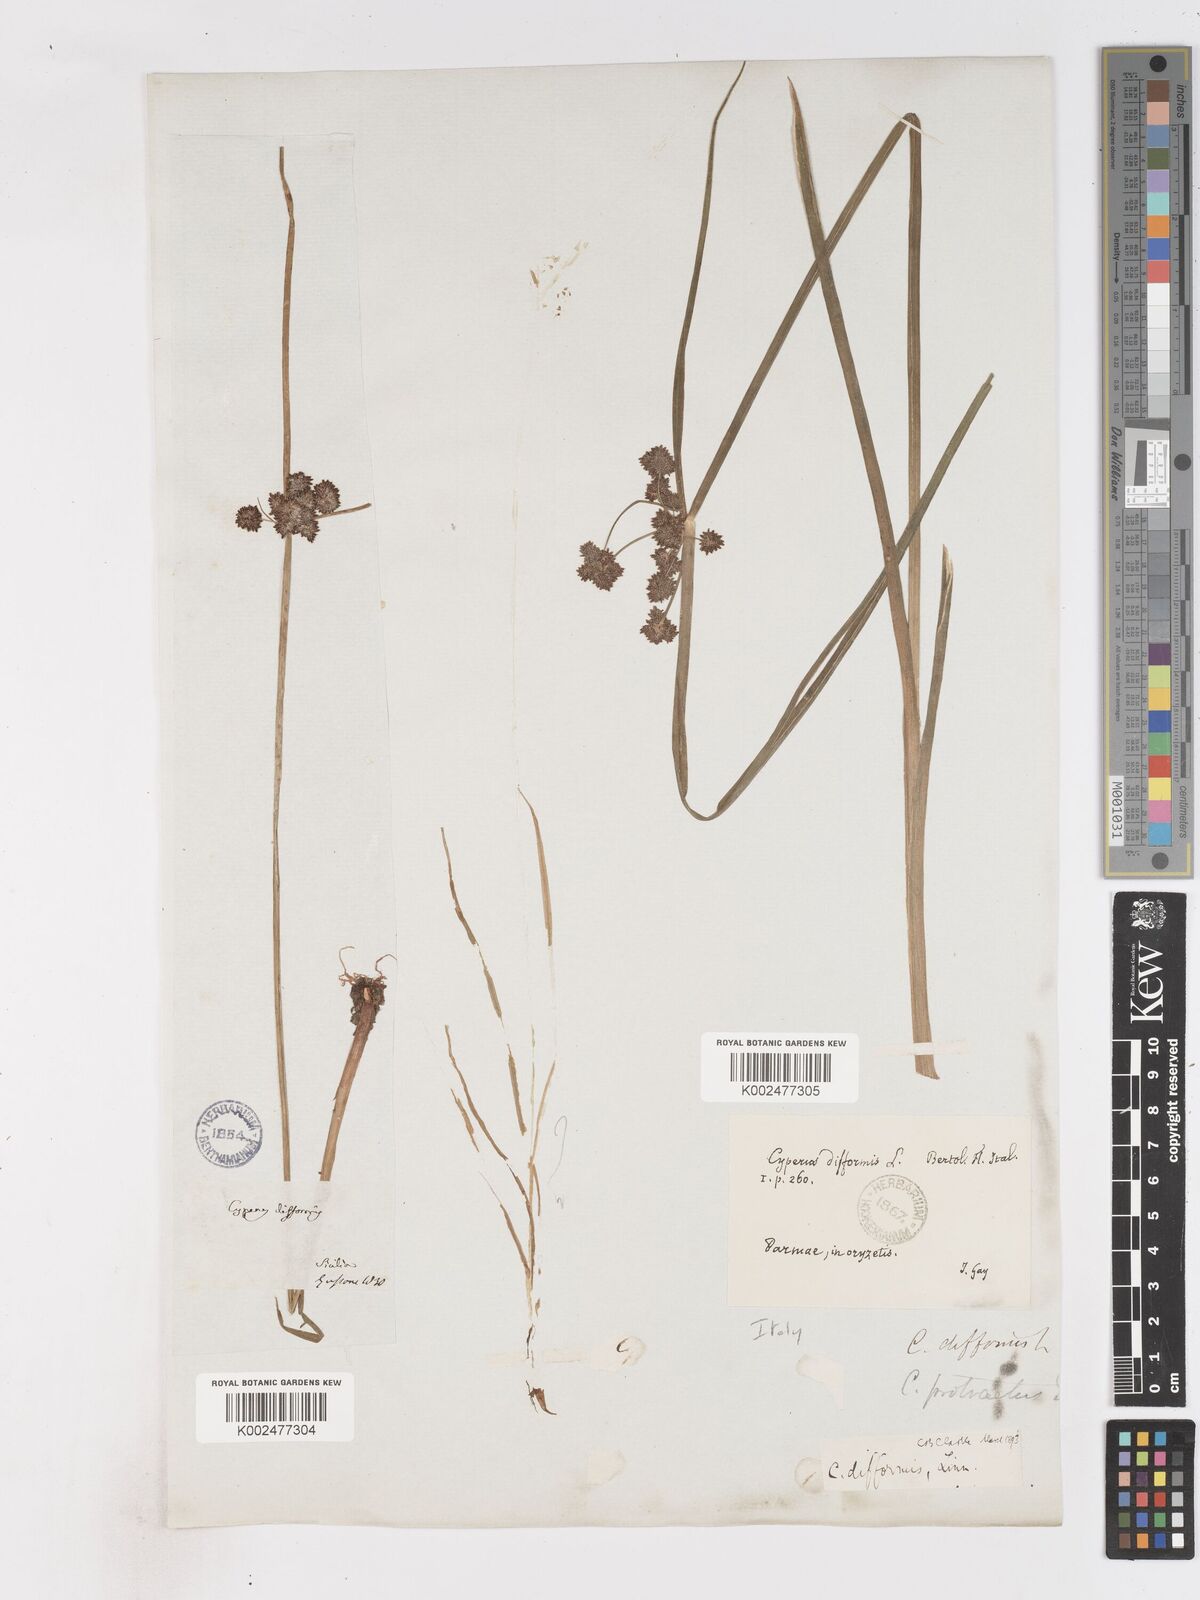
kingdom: Plantae
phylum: Tracheophyta
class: Liliopsida
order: Poales
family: Cyperaceae
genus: Cyperus
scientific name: Cyperus difformis
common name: Variable flatsedge
